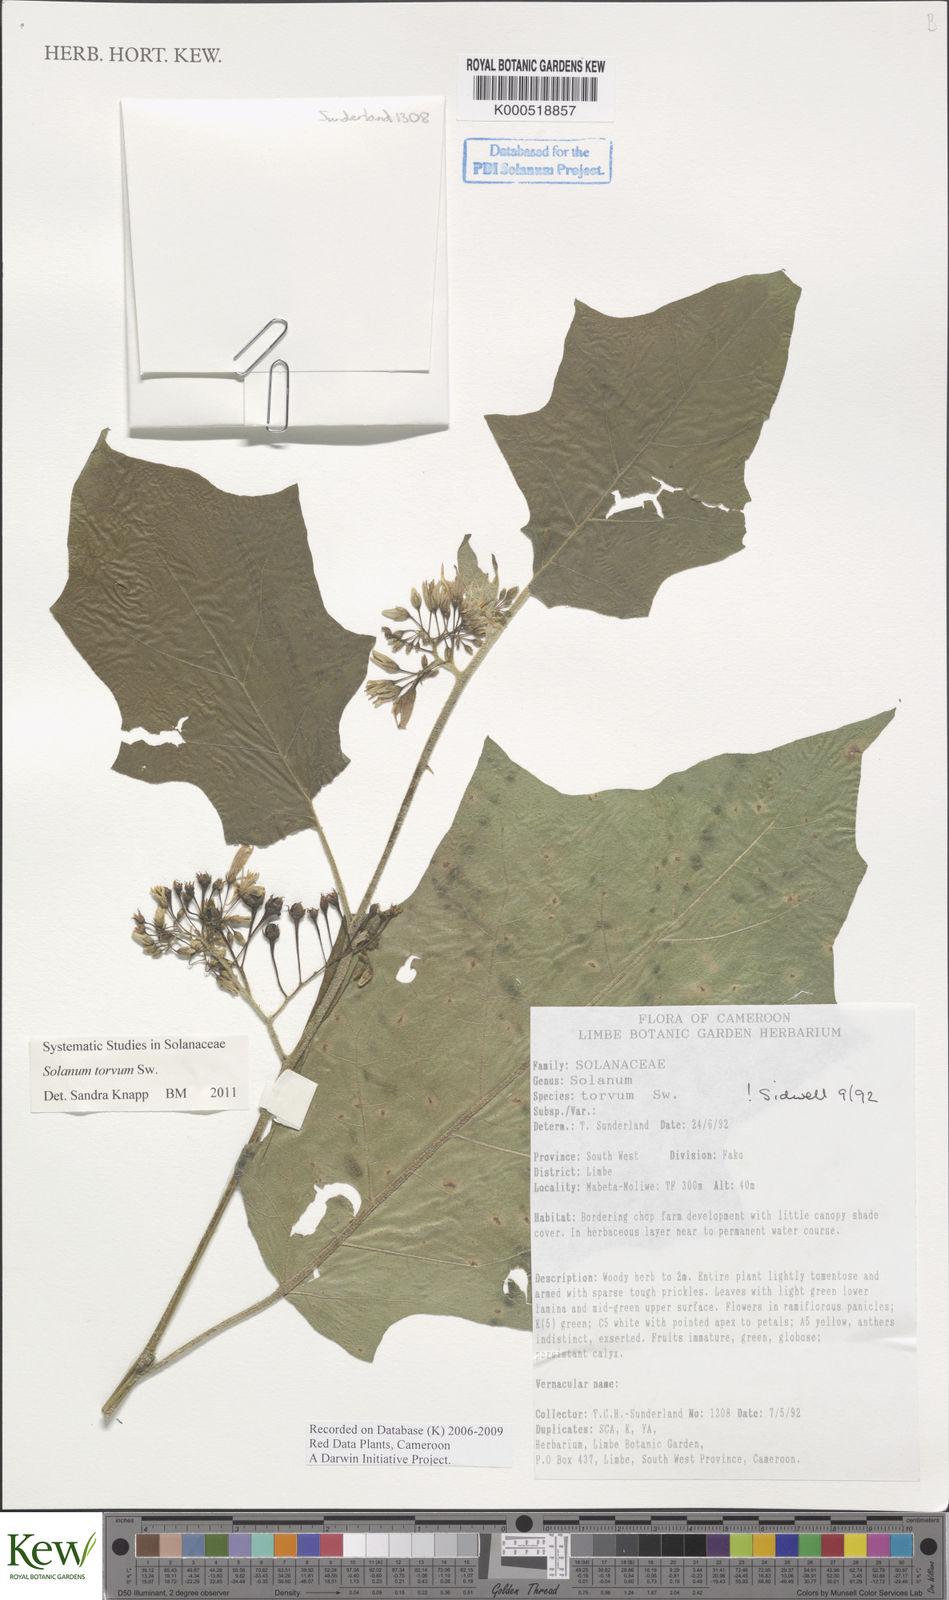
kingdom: Plantae
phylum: Tracheophyta
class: Magnoliopsida
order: Solanales
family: Solanaceae
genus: Solanum
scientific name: Solanum torvum
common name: Turkey berry
